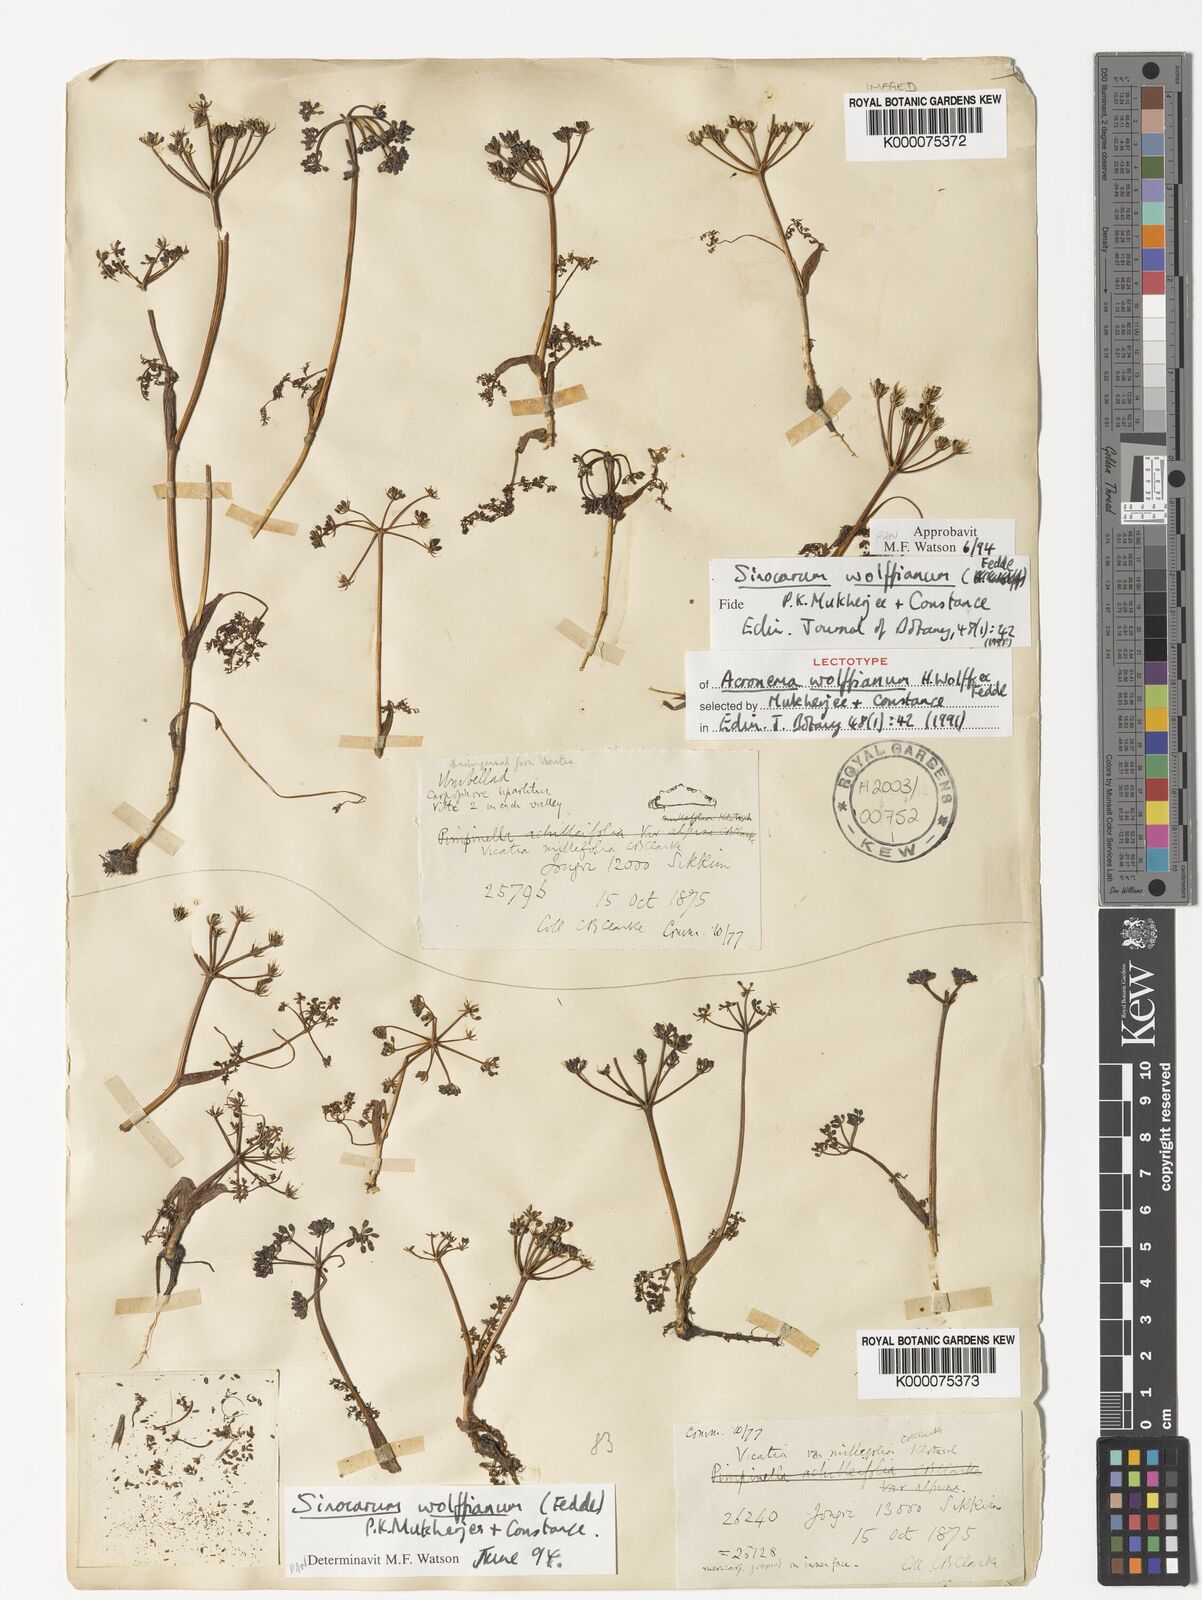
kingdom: Plantae
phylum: Tracheophyta
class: Magnoliopsida
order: Apiales
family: Apiaceae
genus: Trachydium
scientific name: Trachydium souliei
